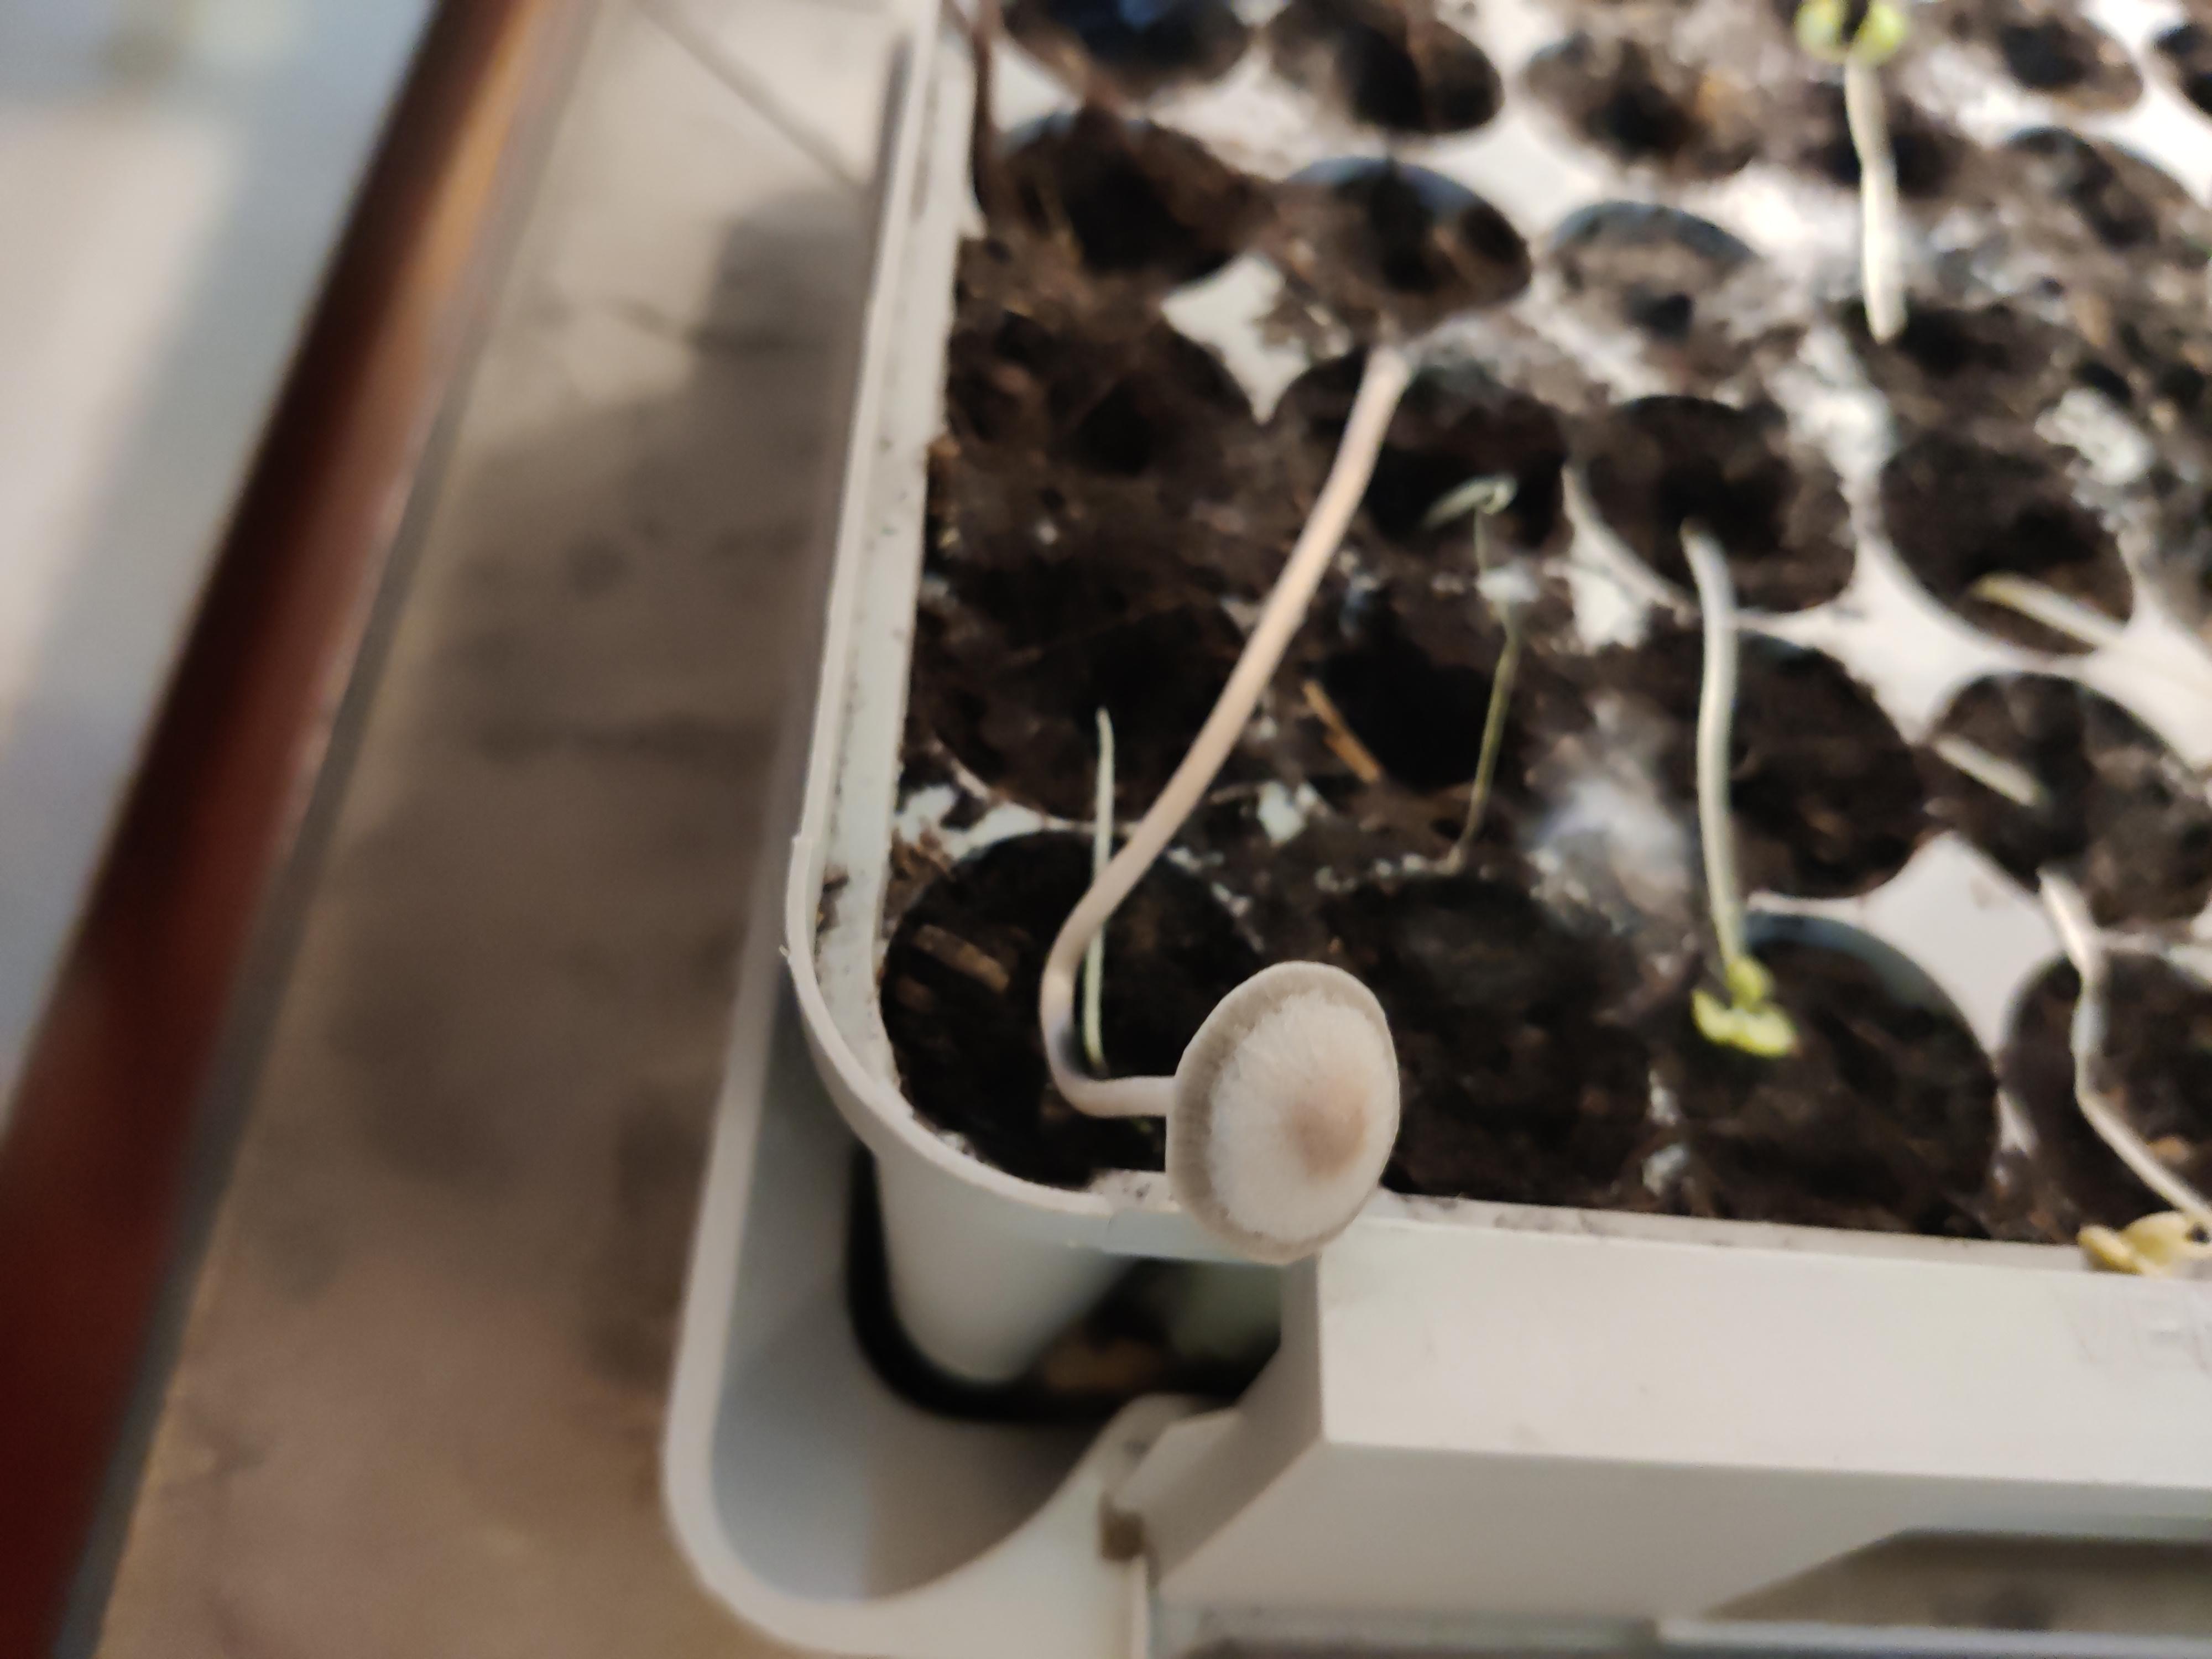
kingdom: Fungi
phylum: Basidiomycota
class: Agaricomycetes
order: Agaricales
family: Psathyrellaceae
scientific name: Psathyrellaceae
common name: mørkhatfamilien
